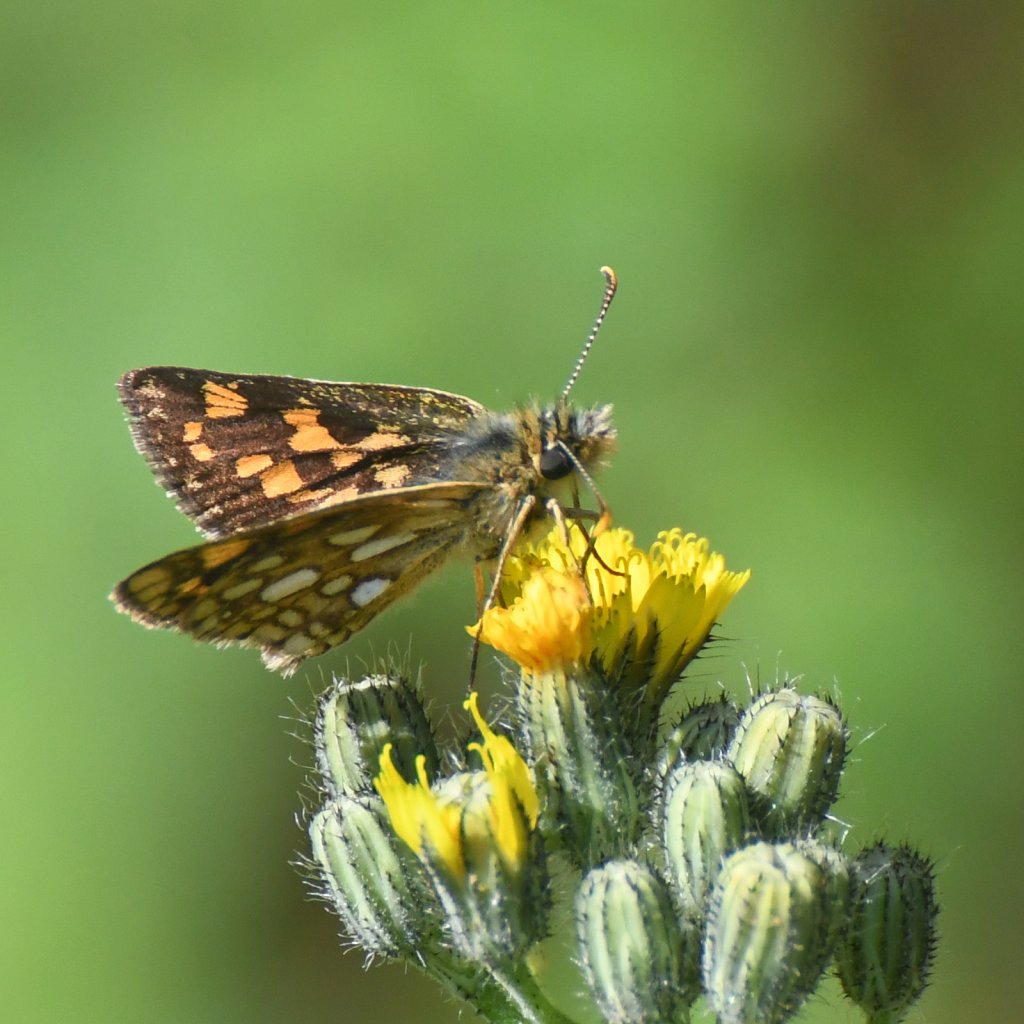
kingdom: Animalia
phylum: Arthropoda
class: Insecta
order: Lepidoptera
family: Hesperiidae
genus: Carterocephalus
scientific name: Carterocephalus palaemon
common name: Chequered Skipper
